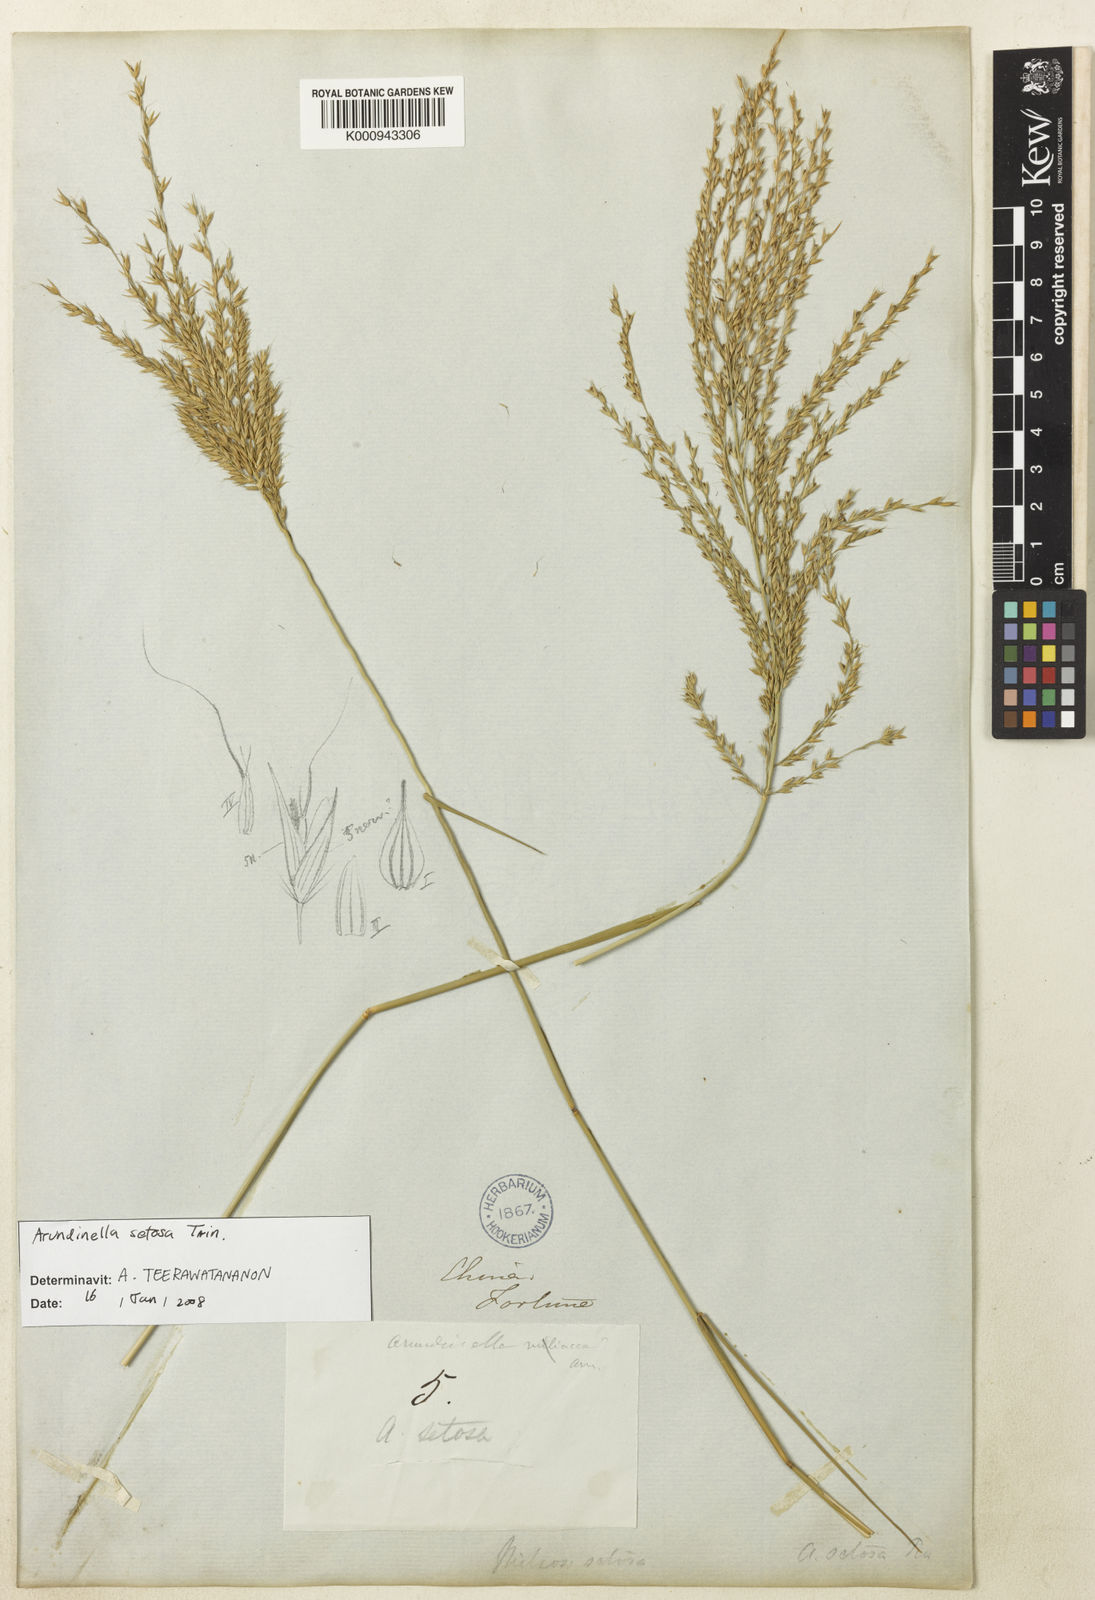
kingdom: Plantae
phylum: Tracheophyta
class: Liliopsida
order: Poales
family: Poaceae
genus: Arundinella
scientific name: Arundinella setosa
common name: Reed grass
